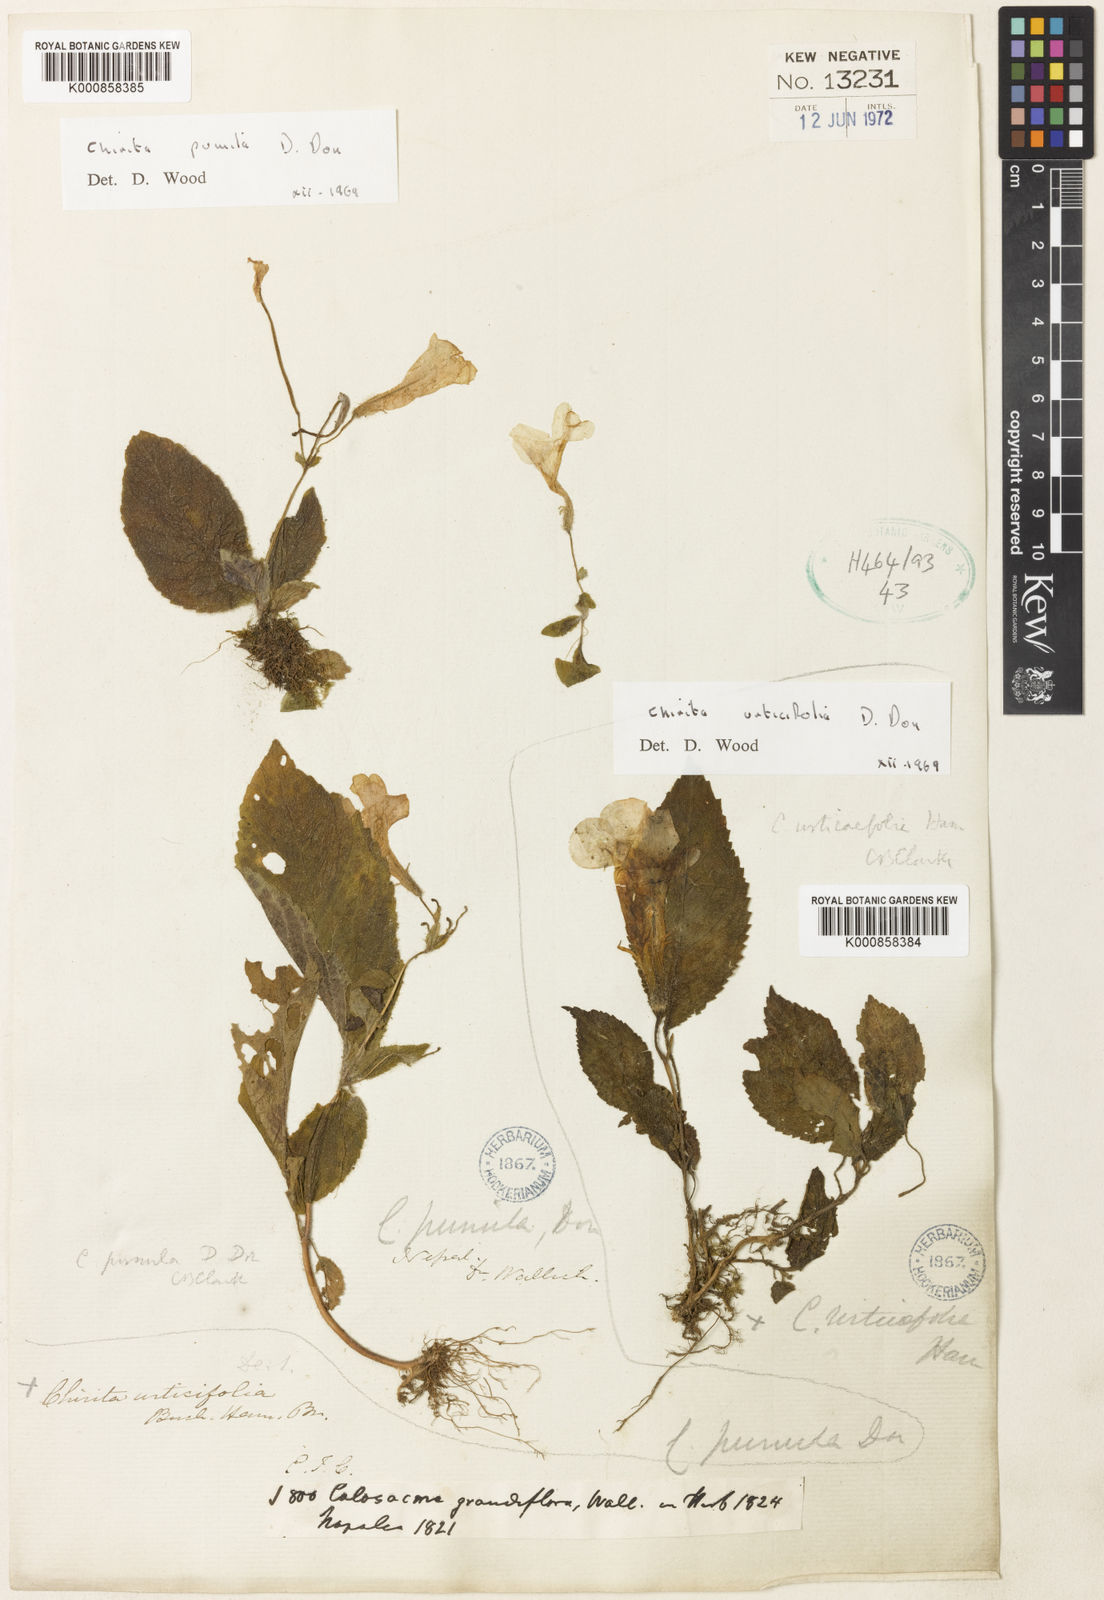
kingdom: Plantae
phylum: Tracheophyta
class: Magnoliopsida
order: Lamiales
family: Gesneriaceae
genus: Henckelia
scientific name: Henckelia urticifolia
